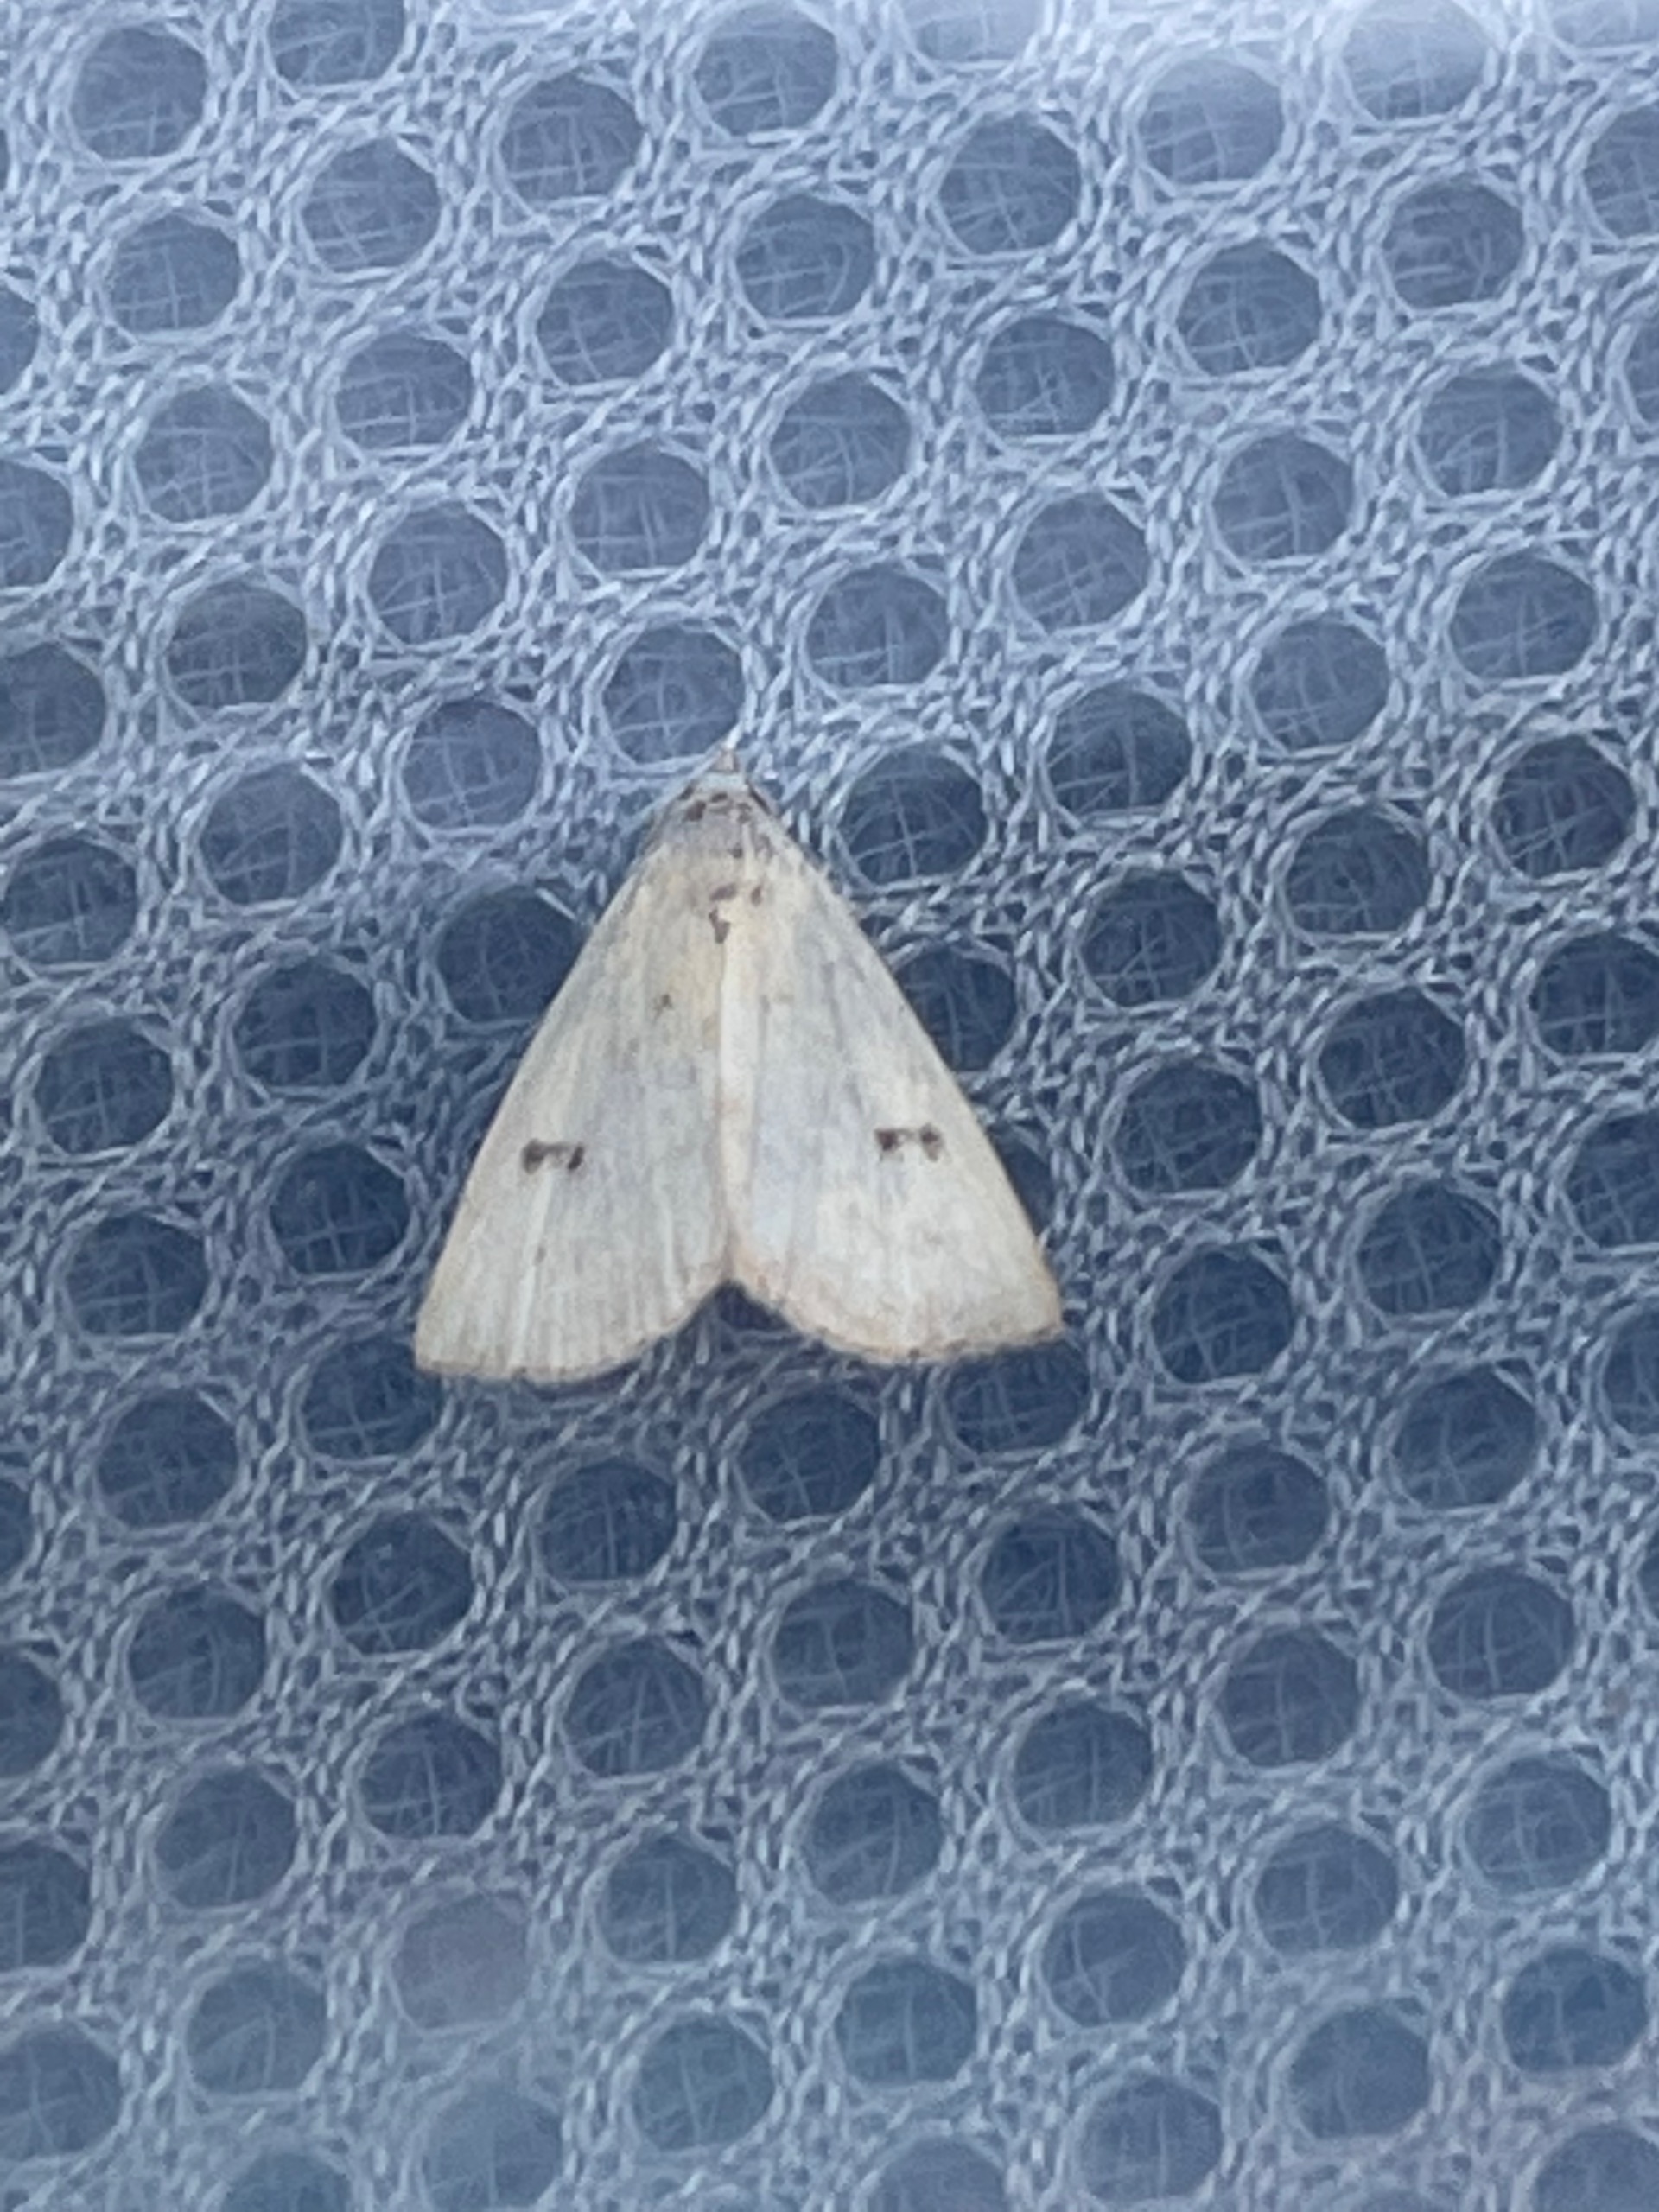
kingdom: Animalia
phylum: Arthropoda
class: Insecta
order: Lepidoptera
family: Erebidae
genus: Rivula
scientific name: Rivula sericealis
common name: Lille å-ugle
